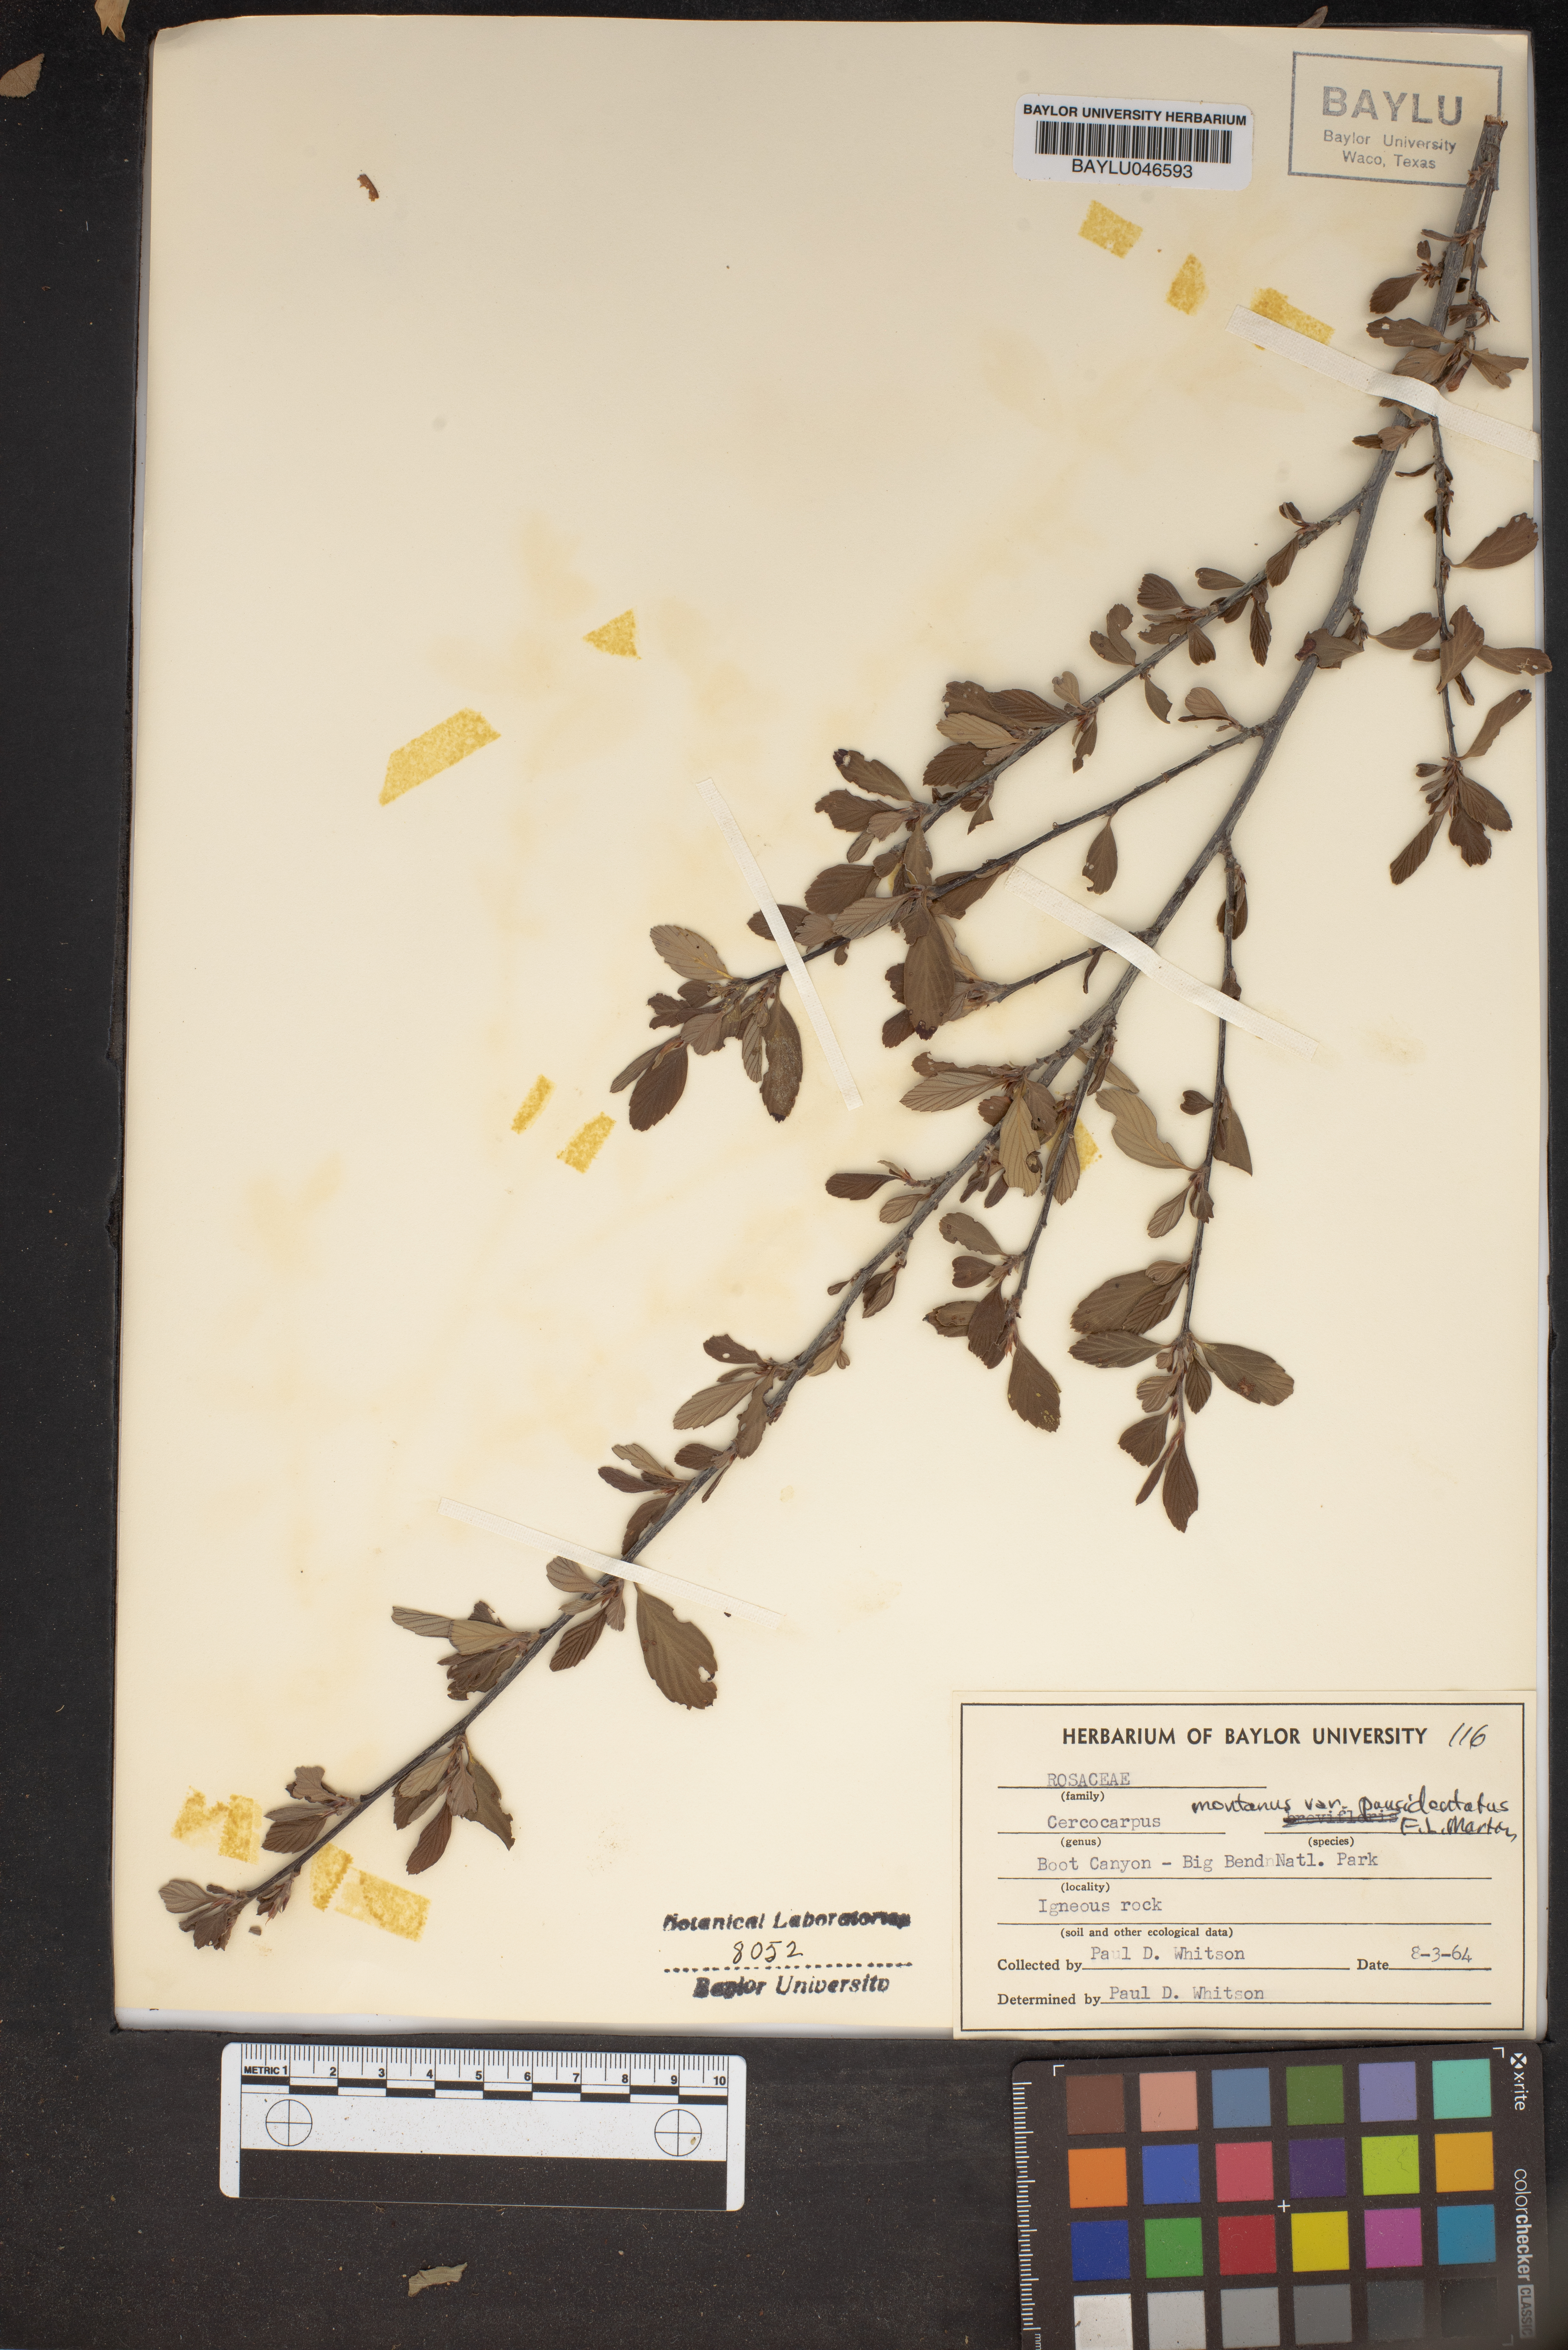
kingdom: Plantae
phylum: Tracheophyta
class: Magnoliopsida
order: Rosales
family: Rosaceae
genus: Cercocarpus
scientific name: Cercocarpus montanus
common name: Alder-leaf cercocarpus
